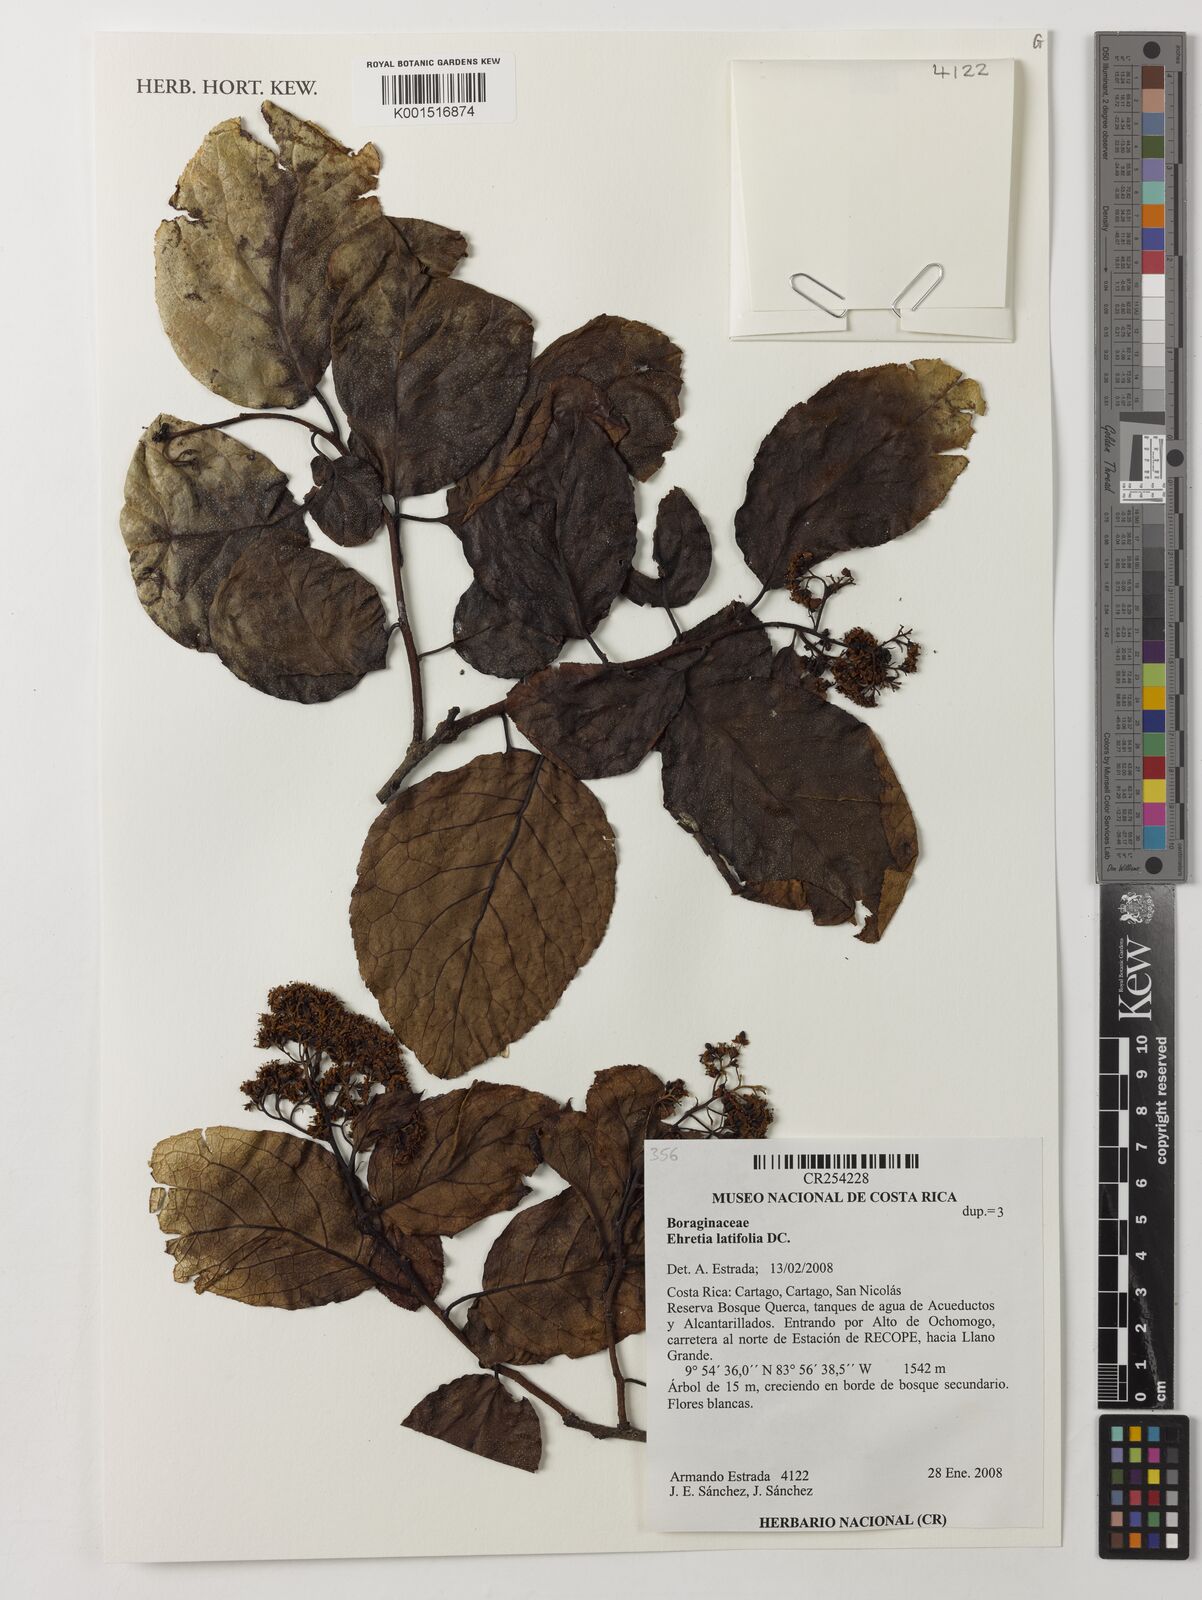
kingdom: Plantae
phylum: Tracheophyta
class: Magnoliopsida
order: Boraginales
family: Ehretiaceae
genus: Ehretia
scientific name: Ehretia latifolia
